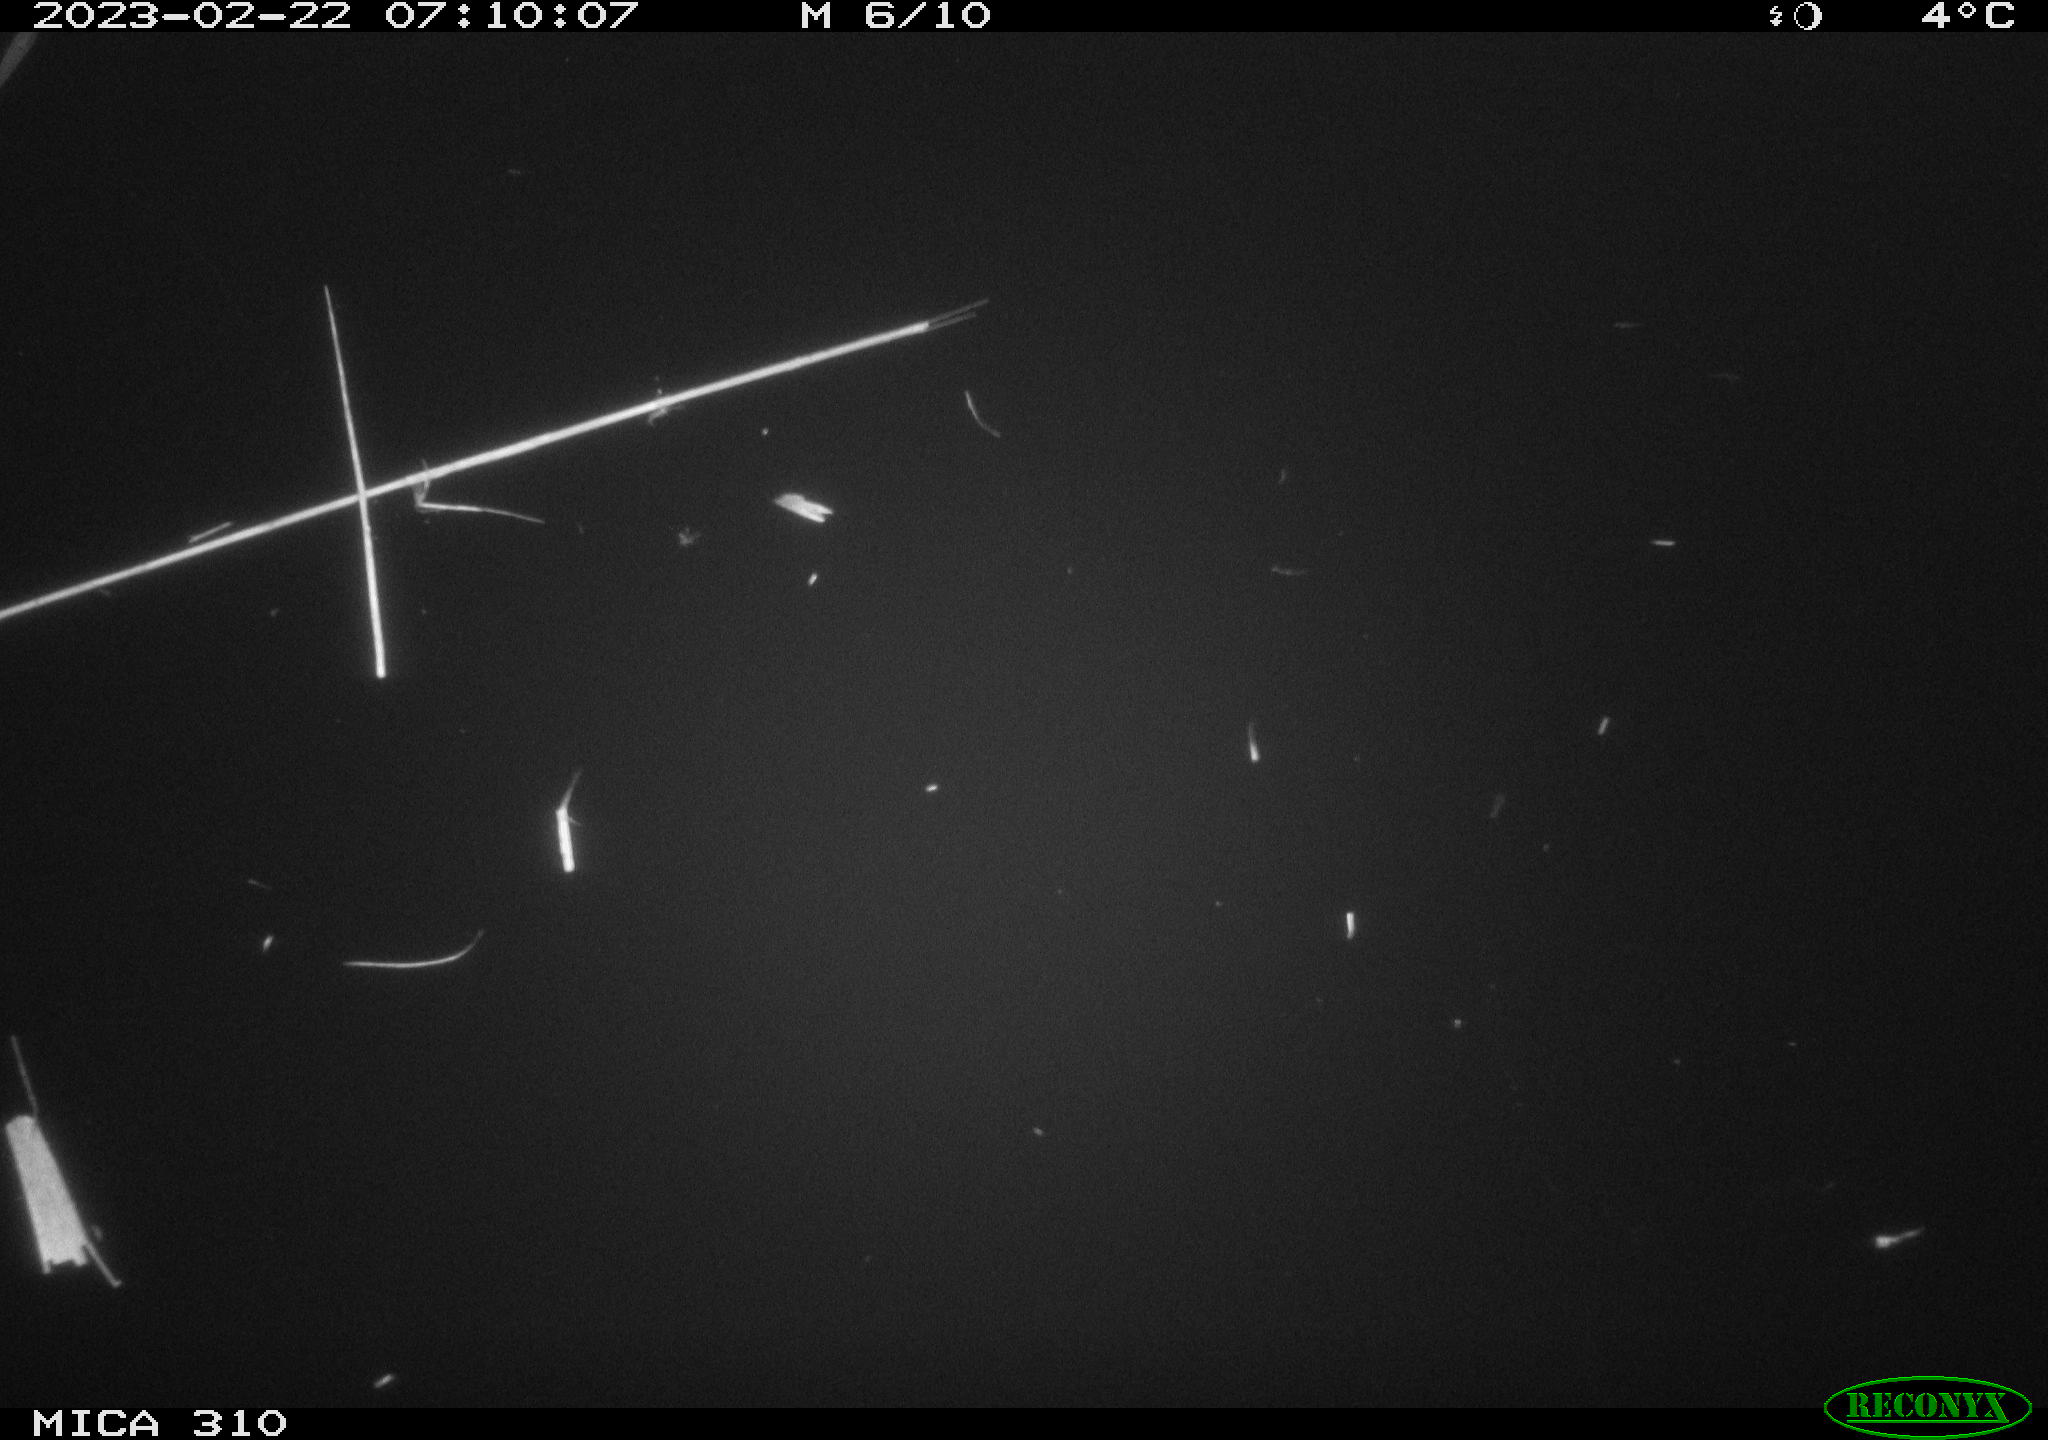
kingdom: Animalia
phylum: Chordata
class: Aves
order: Pelecaniformes
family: Ardeidae
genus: Ardea
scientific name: Ardea cinerea
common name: Grey heron
